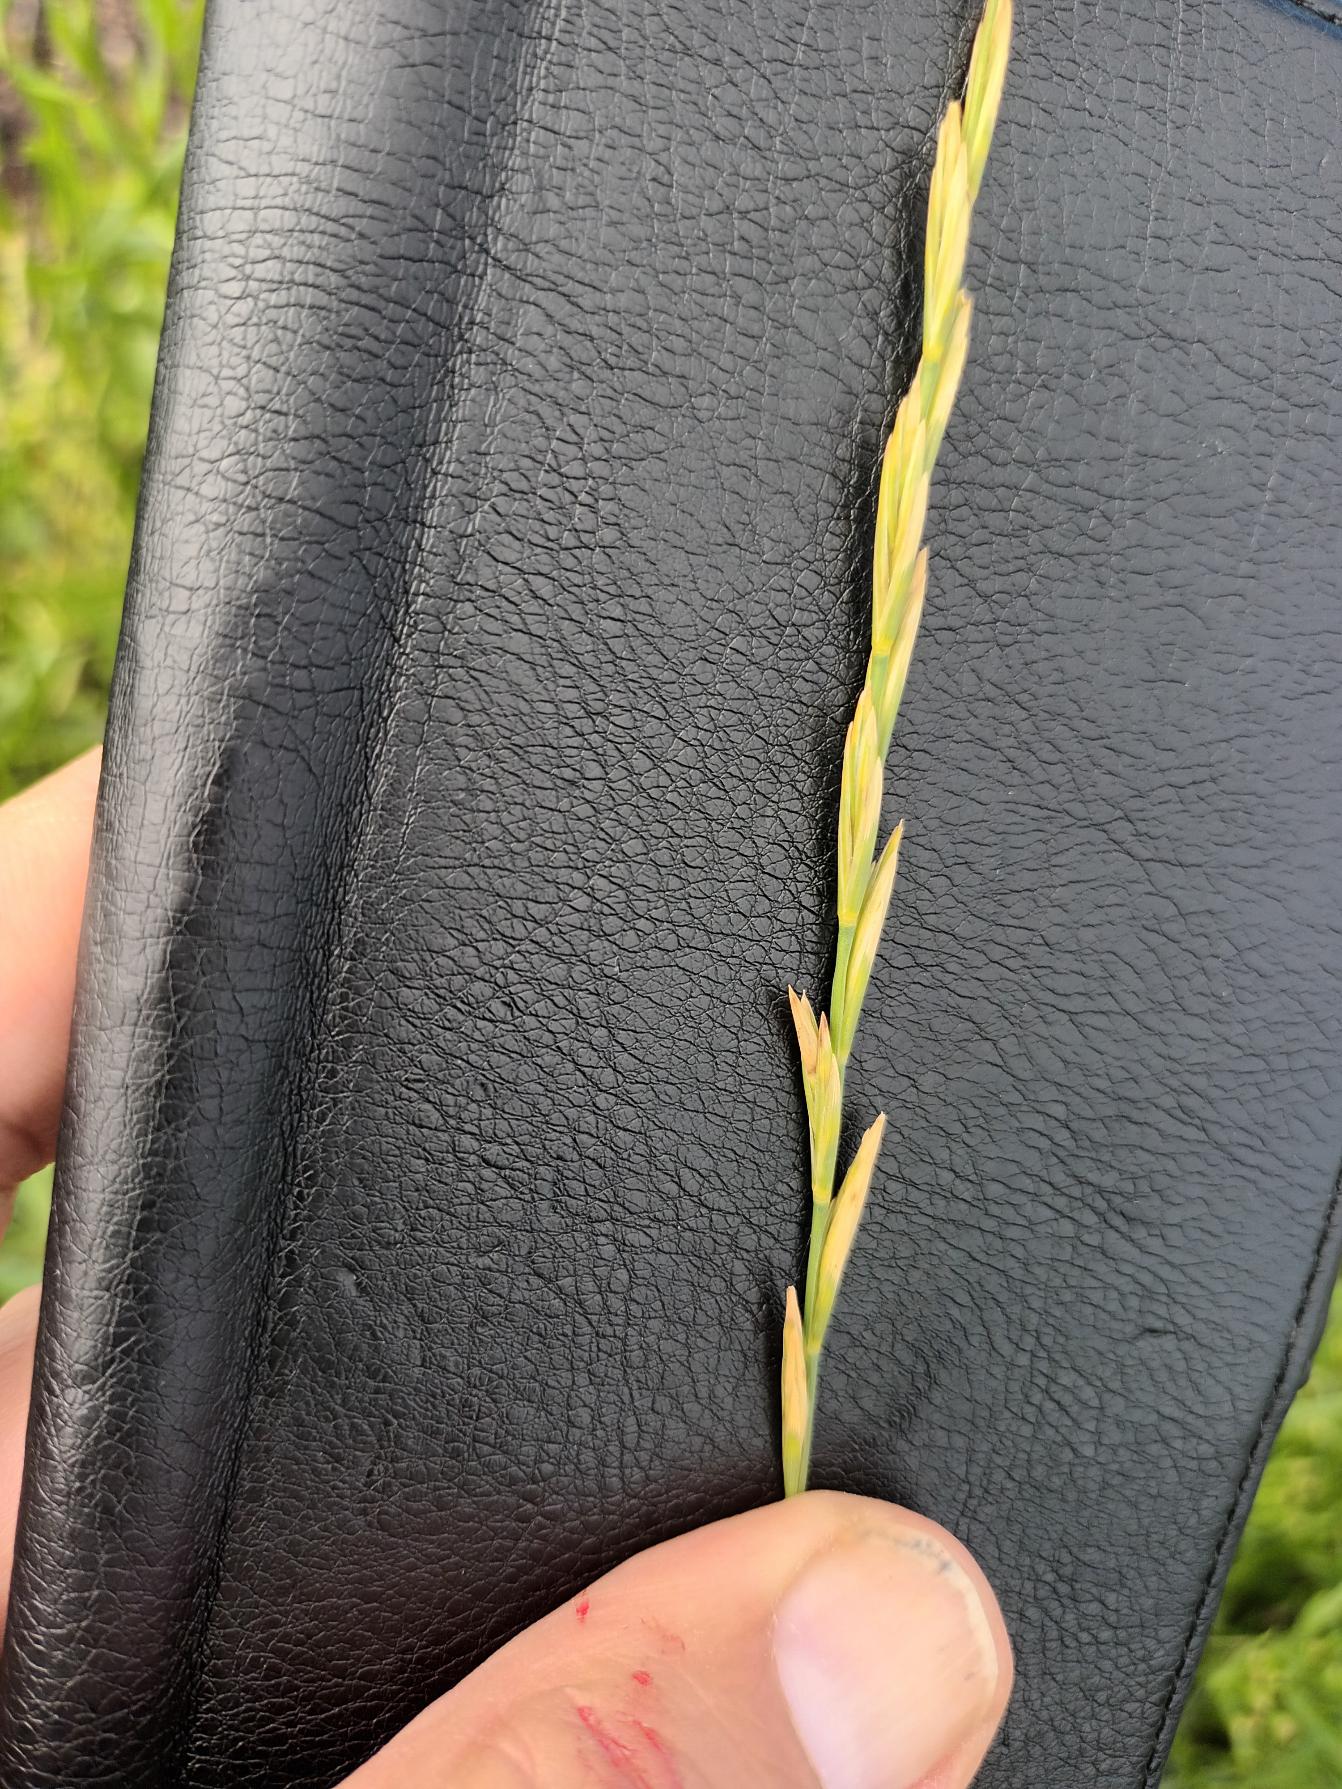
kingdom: Plantae
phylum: Tracheophyta
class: Liliopsida
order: Poales
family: Poaceae
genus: Elymus
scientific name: Elymus repens
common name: Almindelig kvik
